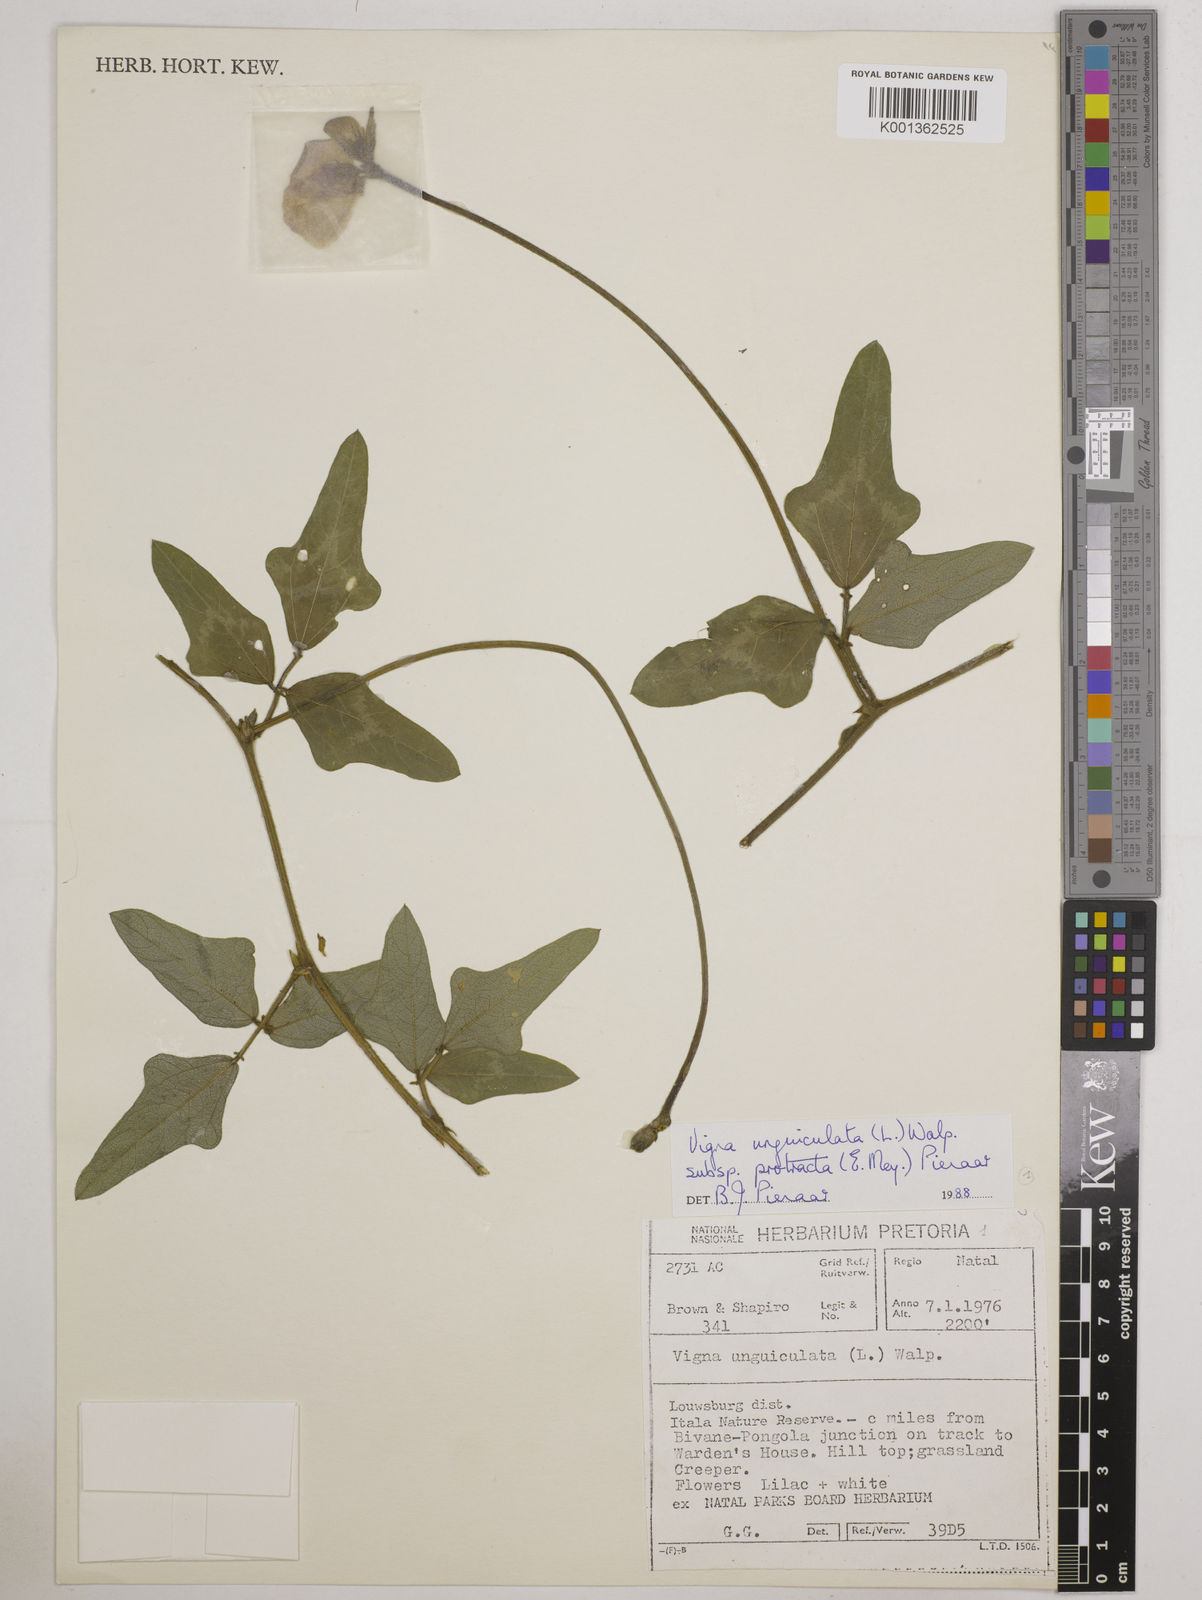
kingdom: Plantae
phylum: Tracheophyta
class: Magnoliopsida
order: Fabales
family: Fabaceae
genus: Vigna
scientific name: Vigna unguiculata
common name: Cowpea
